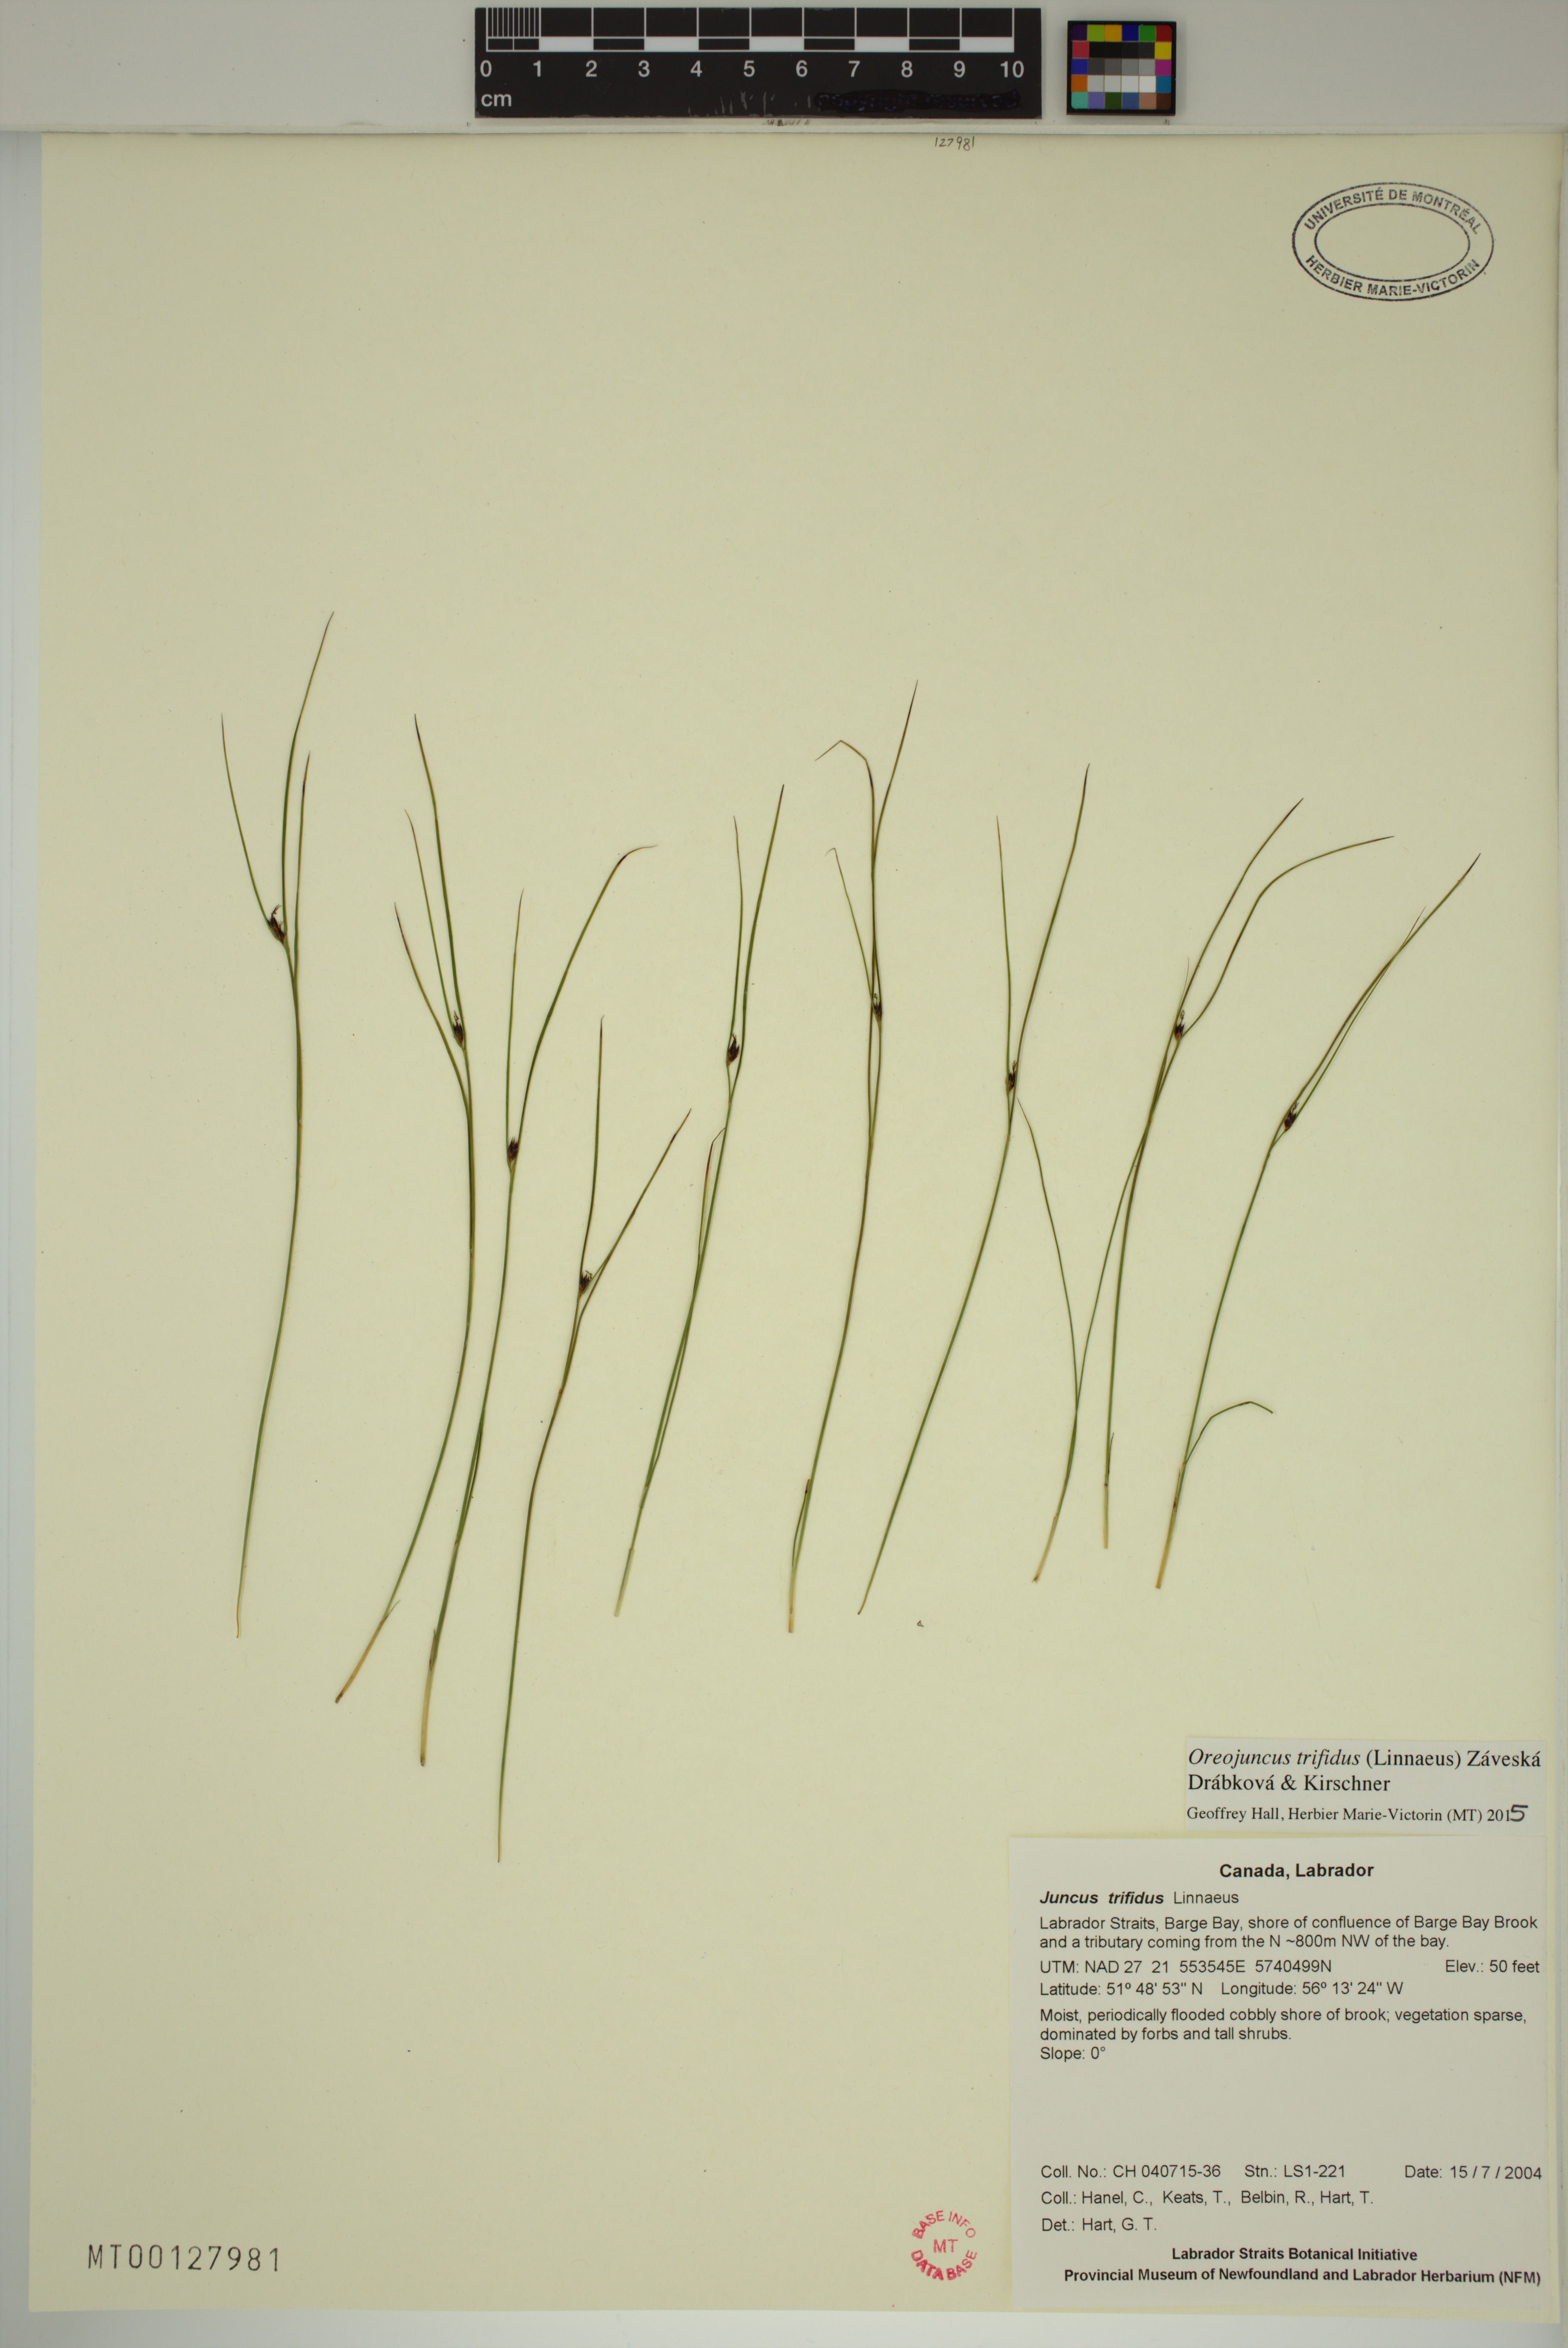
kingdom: Plantae
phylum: Tracheophyta
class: Liliopsida
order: Poales
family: Juncaceae
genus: Oreojuncus
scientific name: Oreojuncus trifidus
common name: Highland rush
